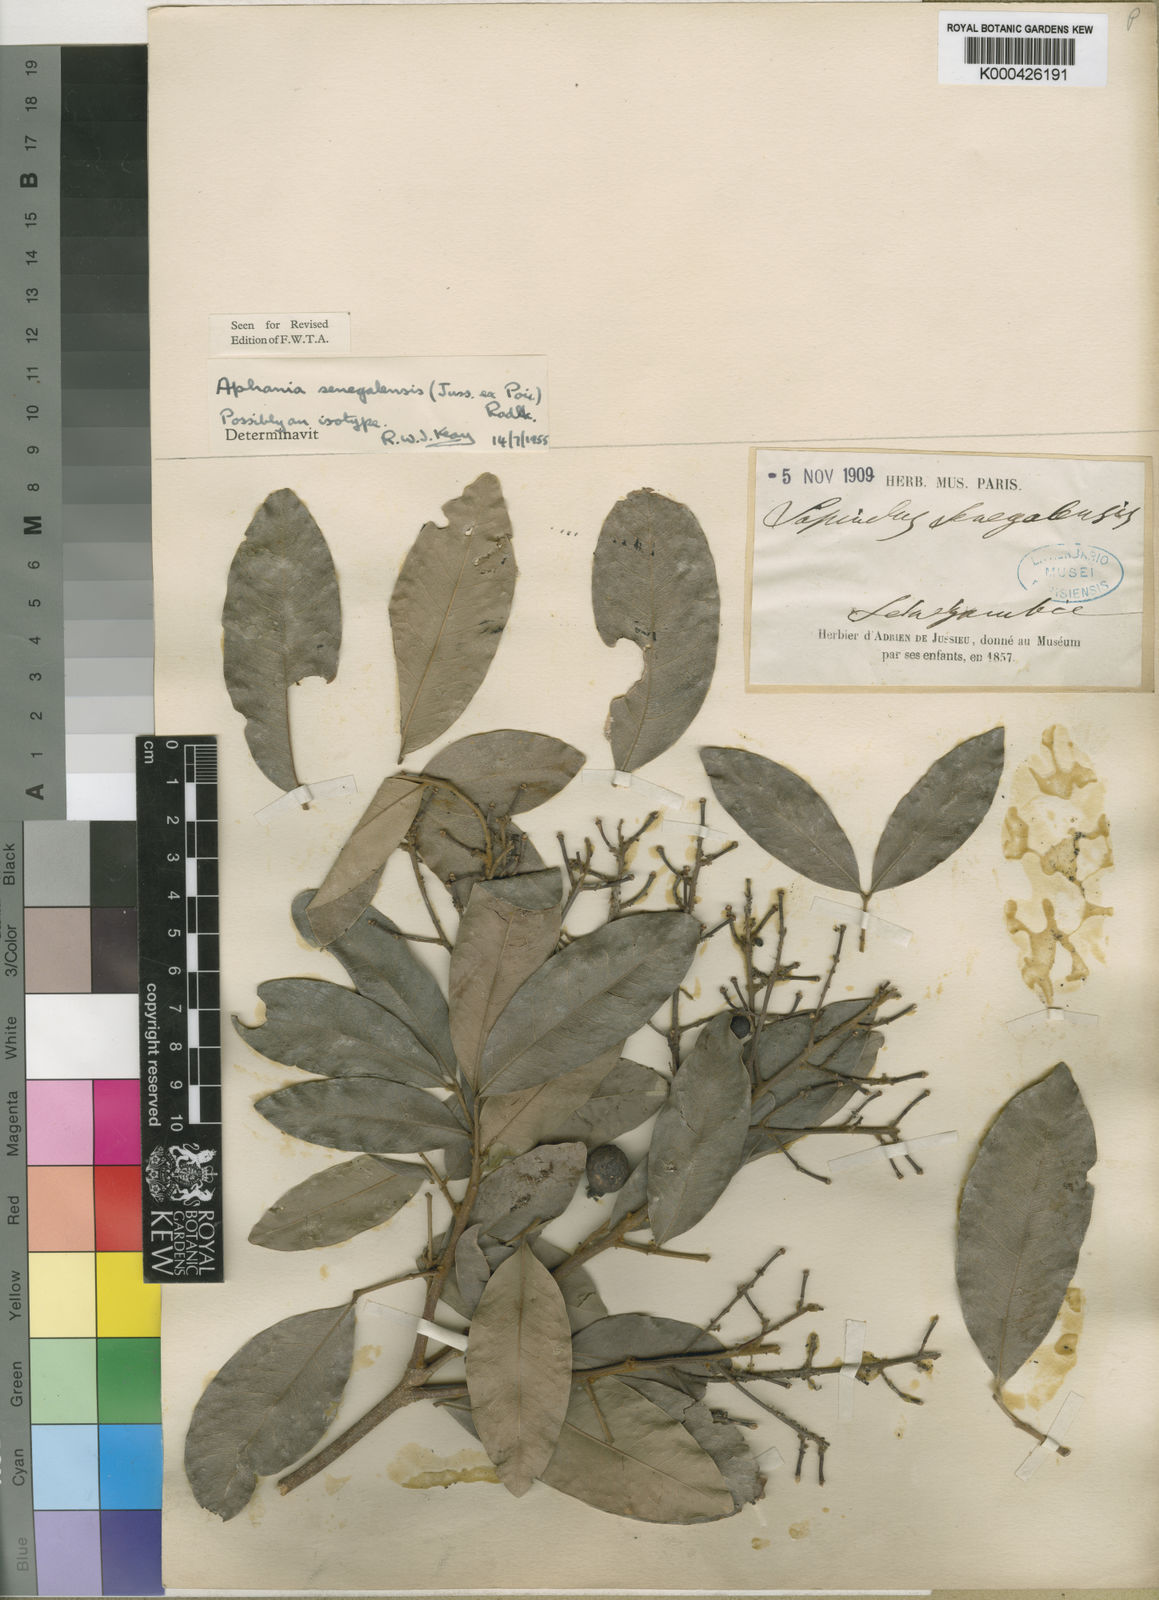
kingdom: Plantae
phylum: Tracheophyta
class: Magnoliopsida
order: Sapindales
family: Sapindaceae
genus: Lepisanthes
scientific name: Lepisanthes senegalensis
